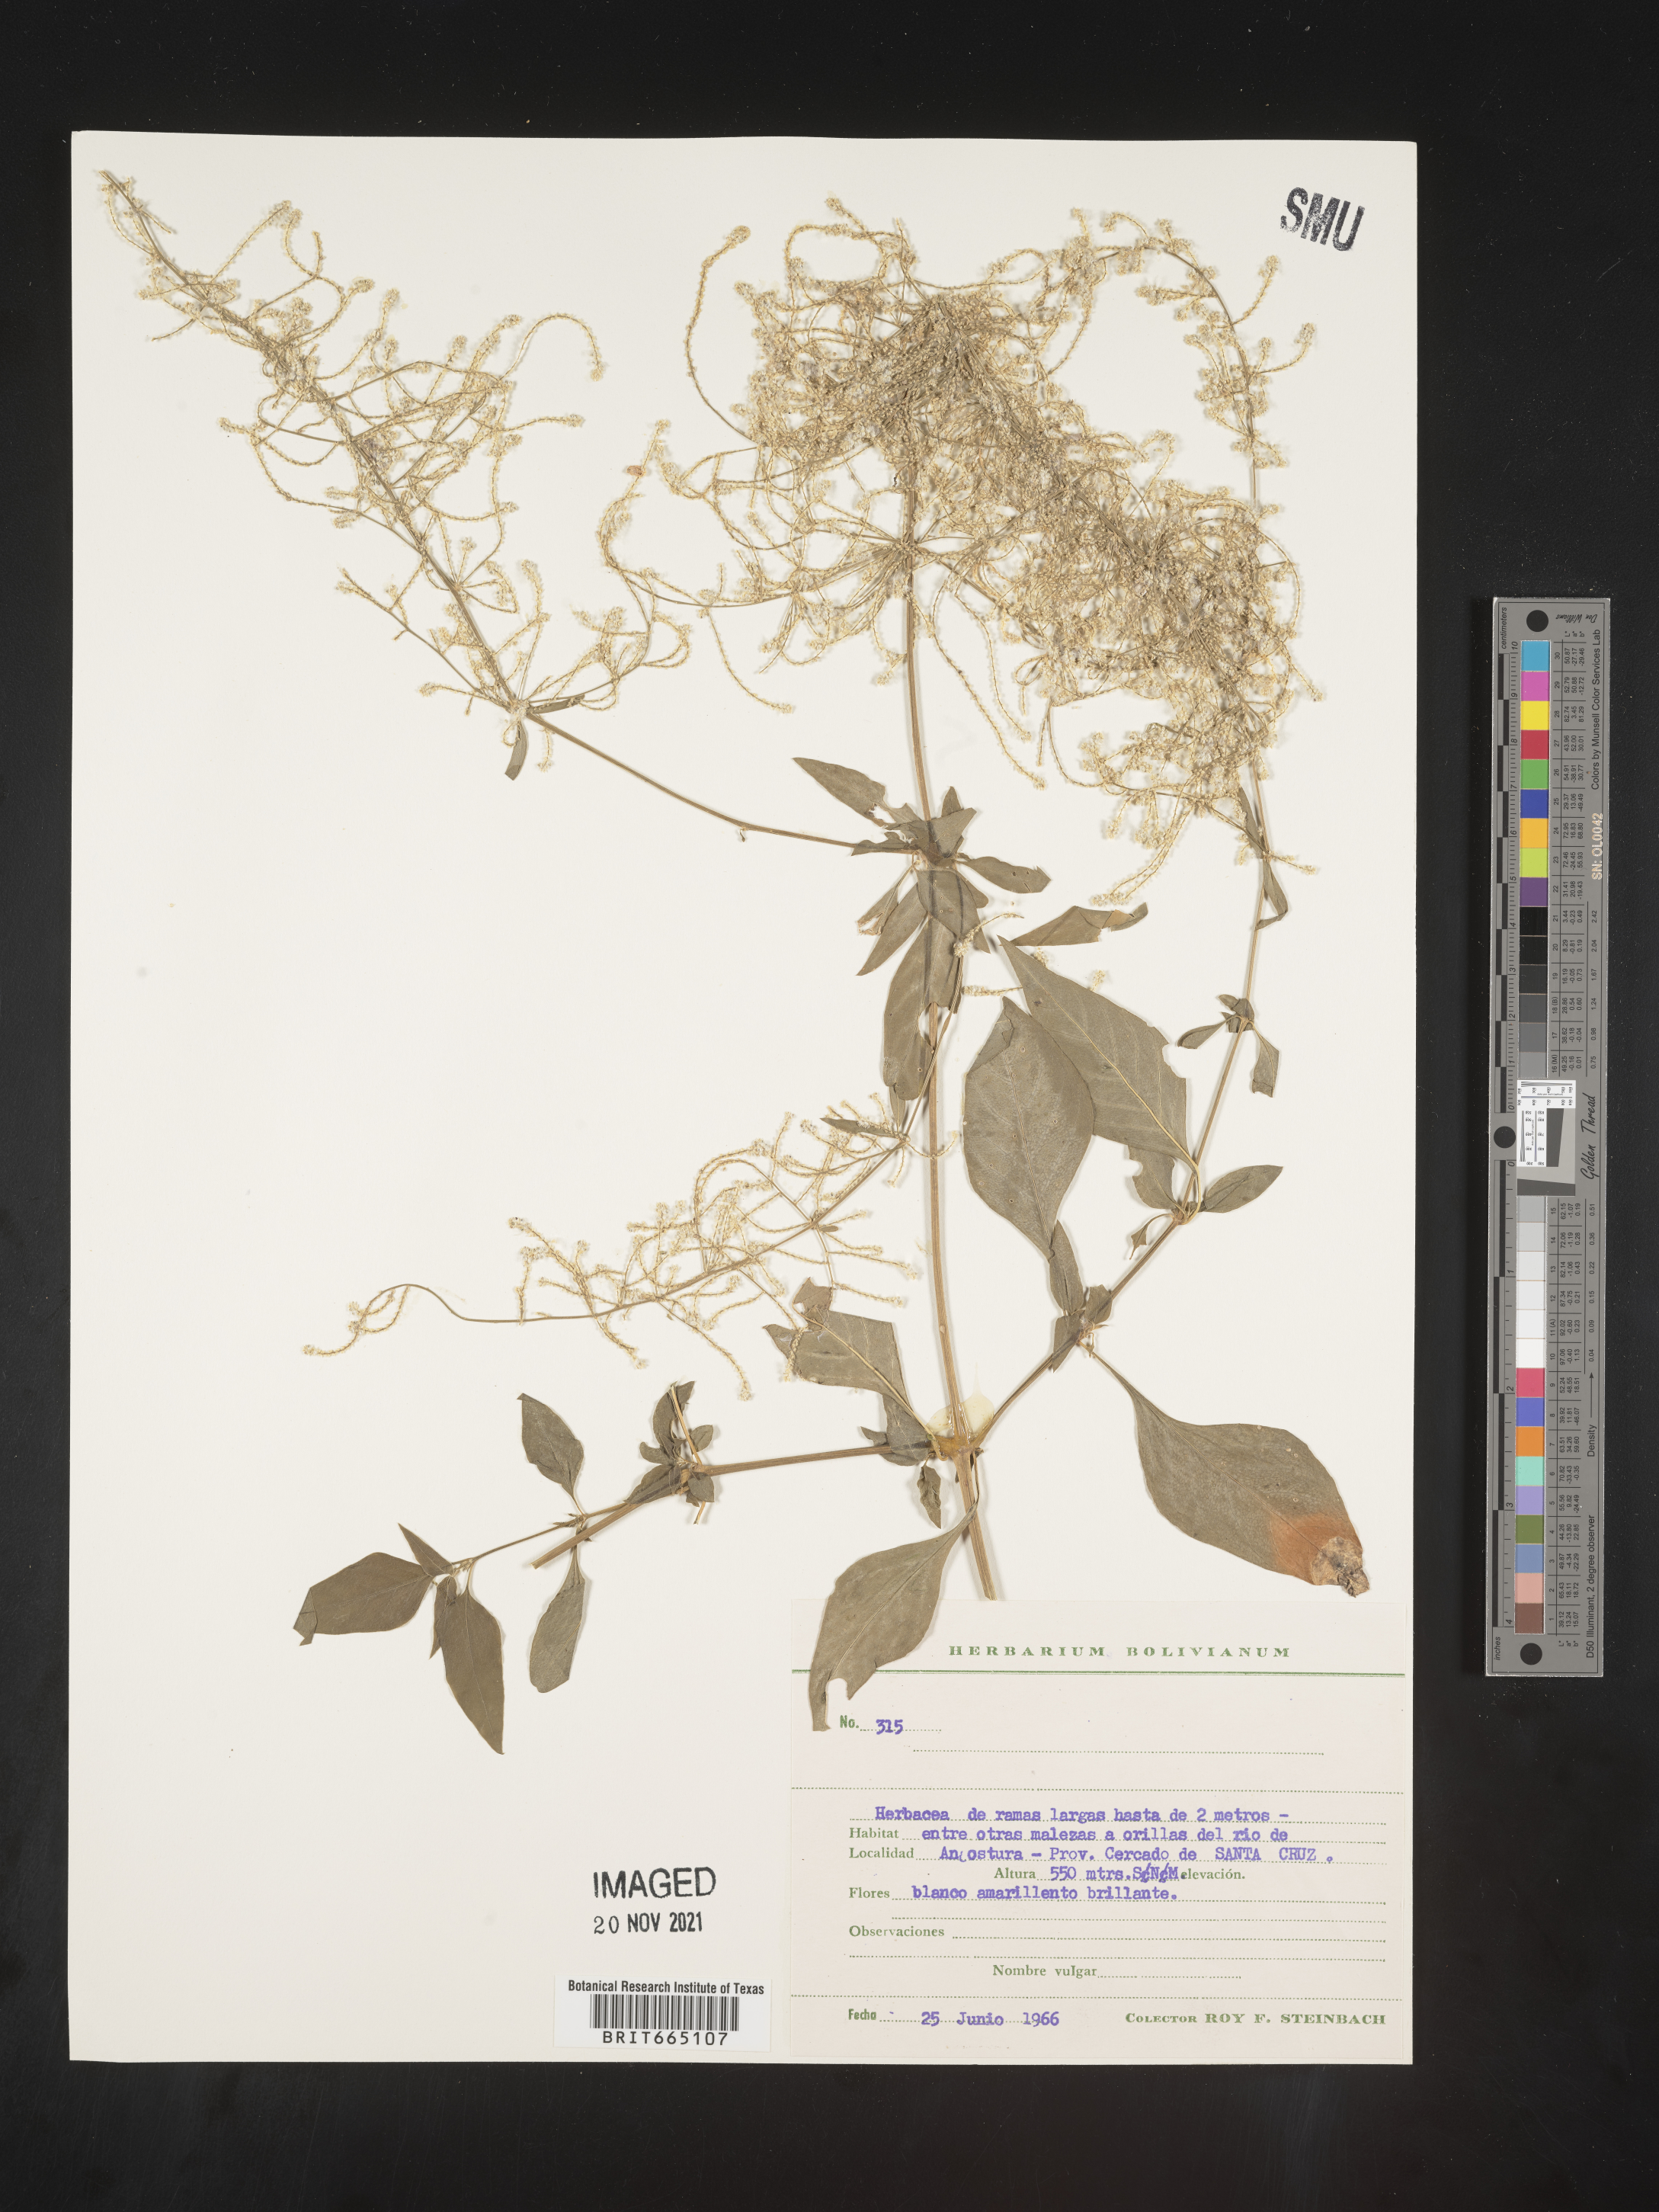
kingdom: Plantae
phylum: Tracheophyta
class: Magnoliopsida
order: Caryophyllales
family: Amaranthaceae
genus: Iresine
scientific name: Iresine
